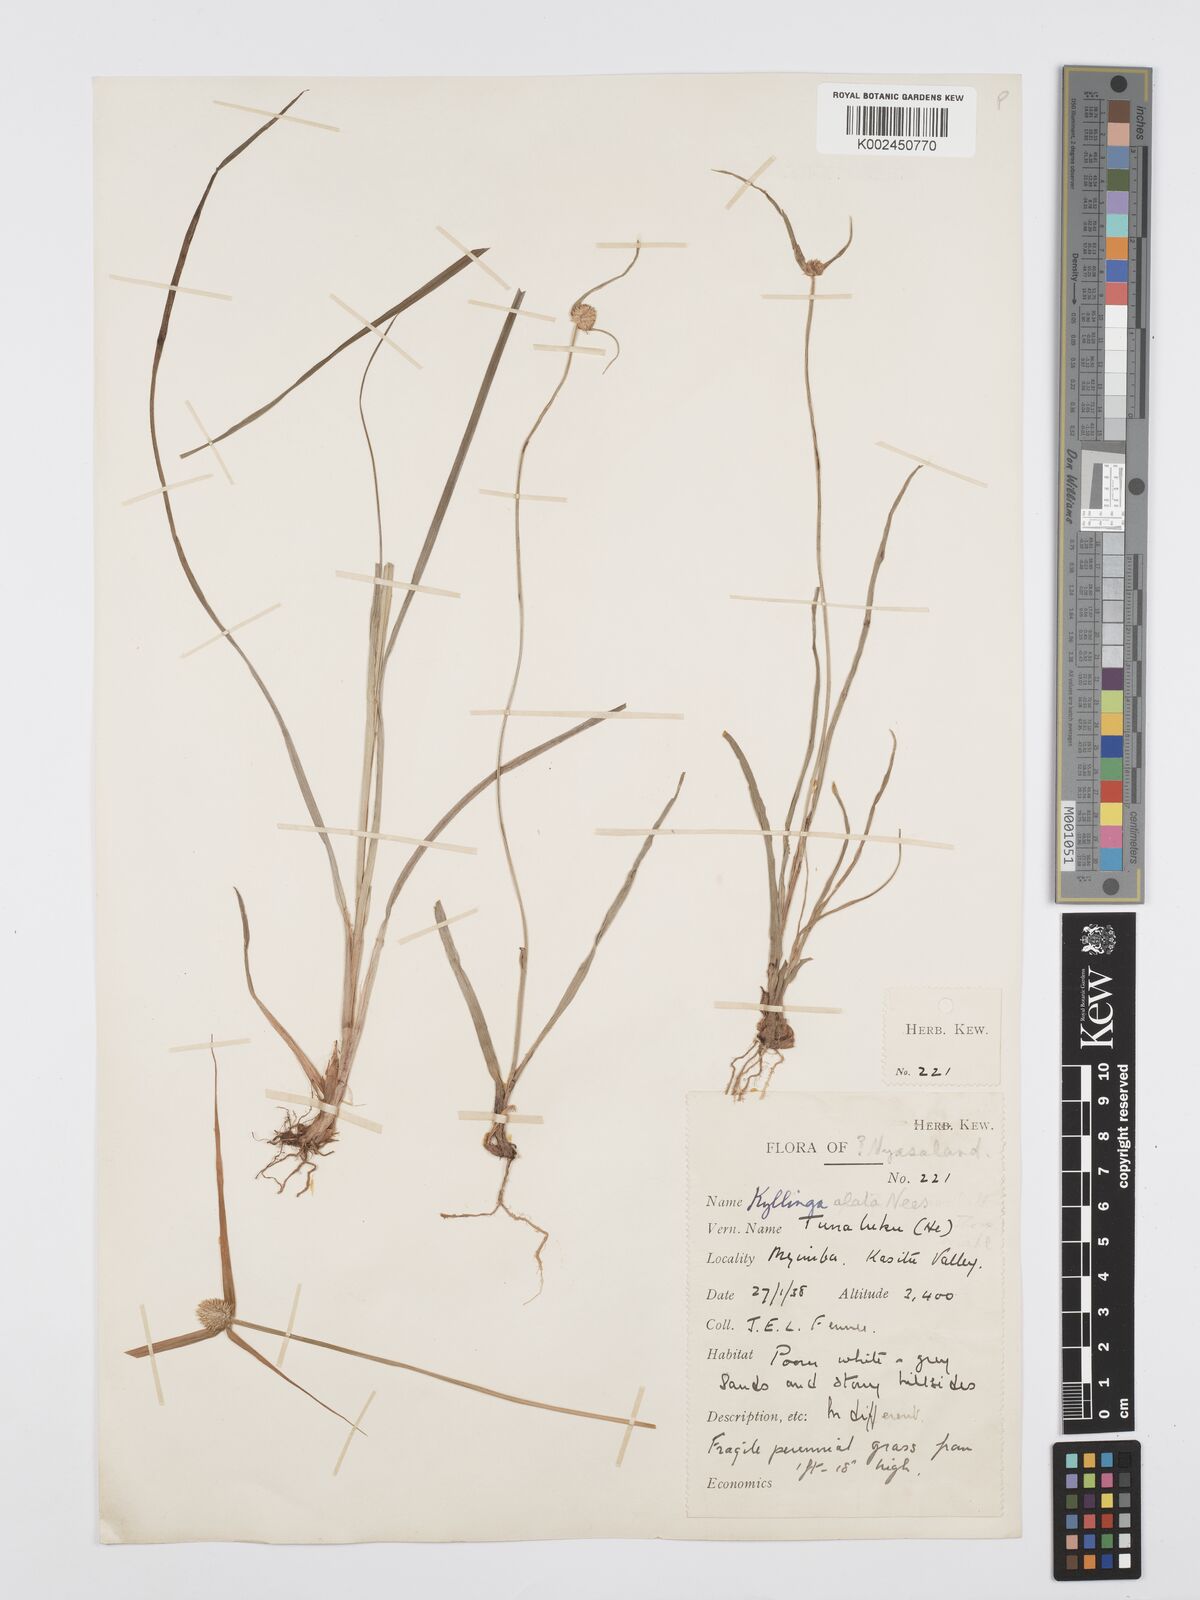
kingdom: Plantae
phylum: Tracheophyta
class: Liliopsida
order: Poales
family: Cyperaceae
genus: Cyperus
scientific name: Cyperus rukwanus
